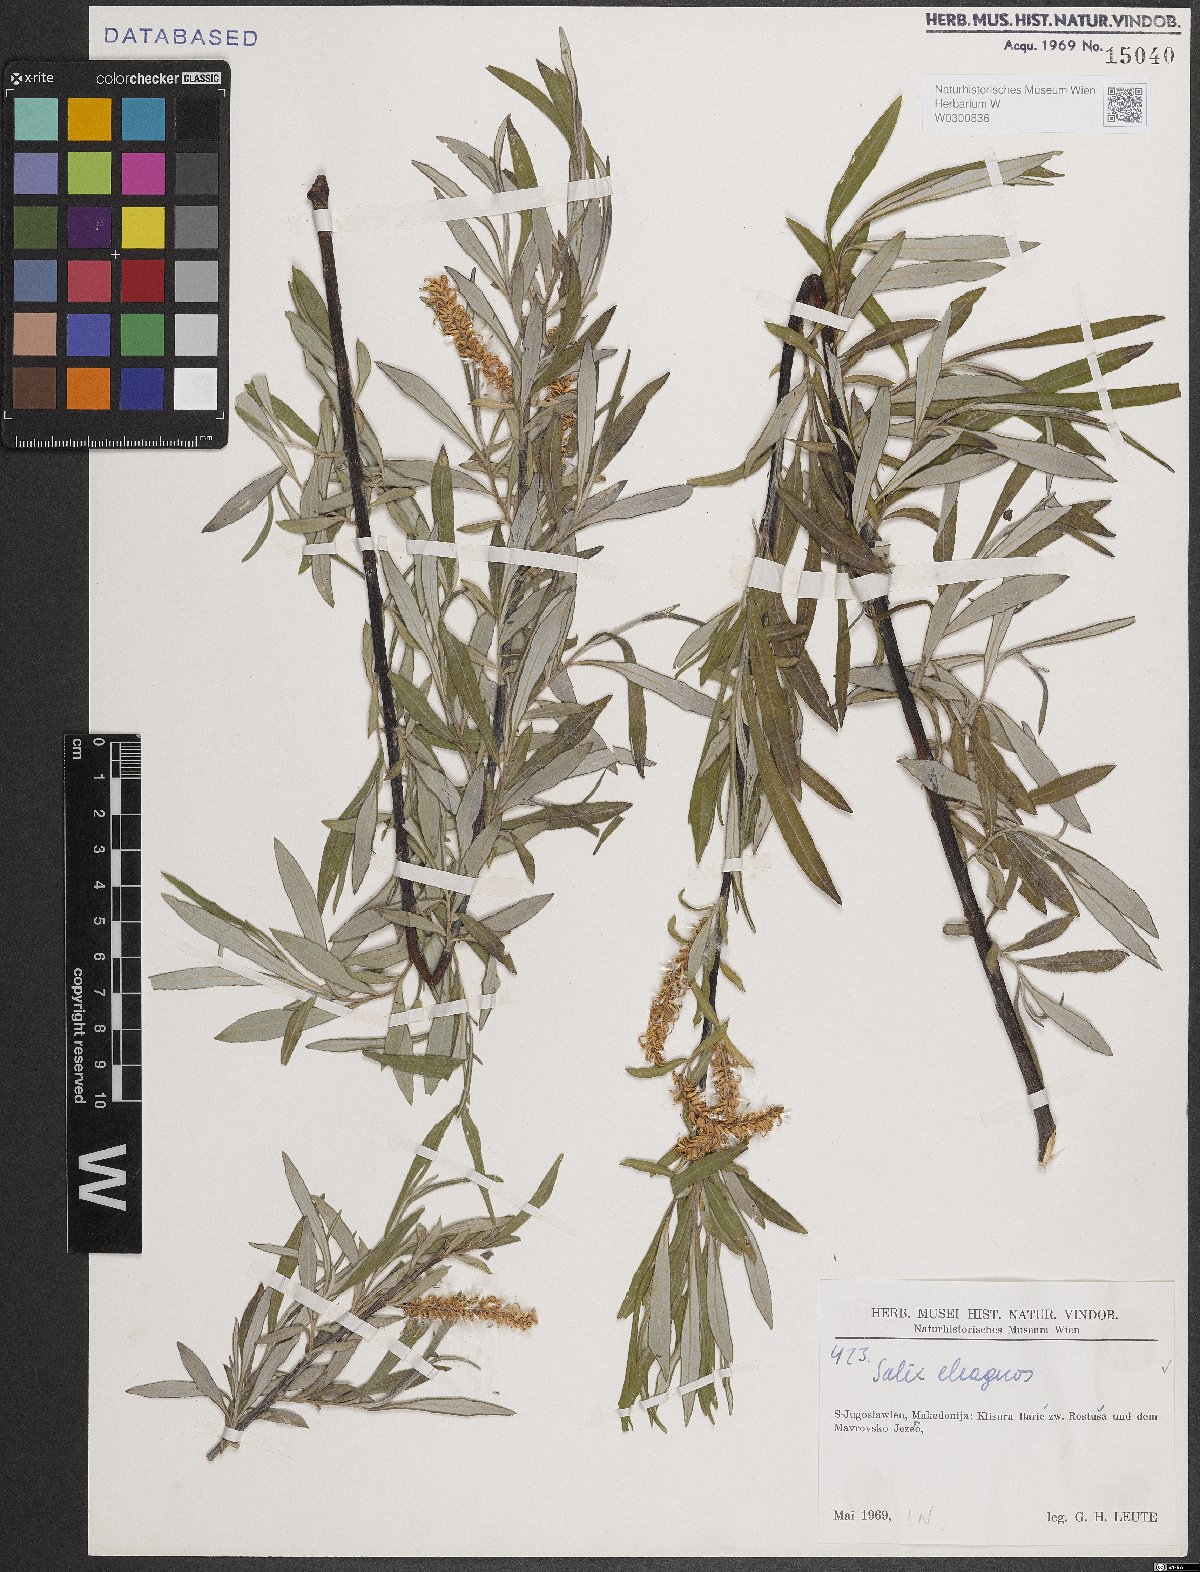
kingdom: Plantae
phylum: Tracheophyta
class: Magnoliopsida
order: Malpighiales
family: Salicaceae
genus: Salix
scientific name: Salix eleagnos
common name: Elaeagnus willow
